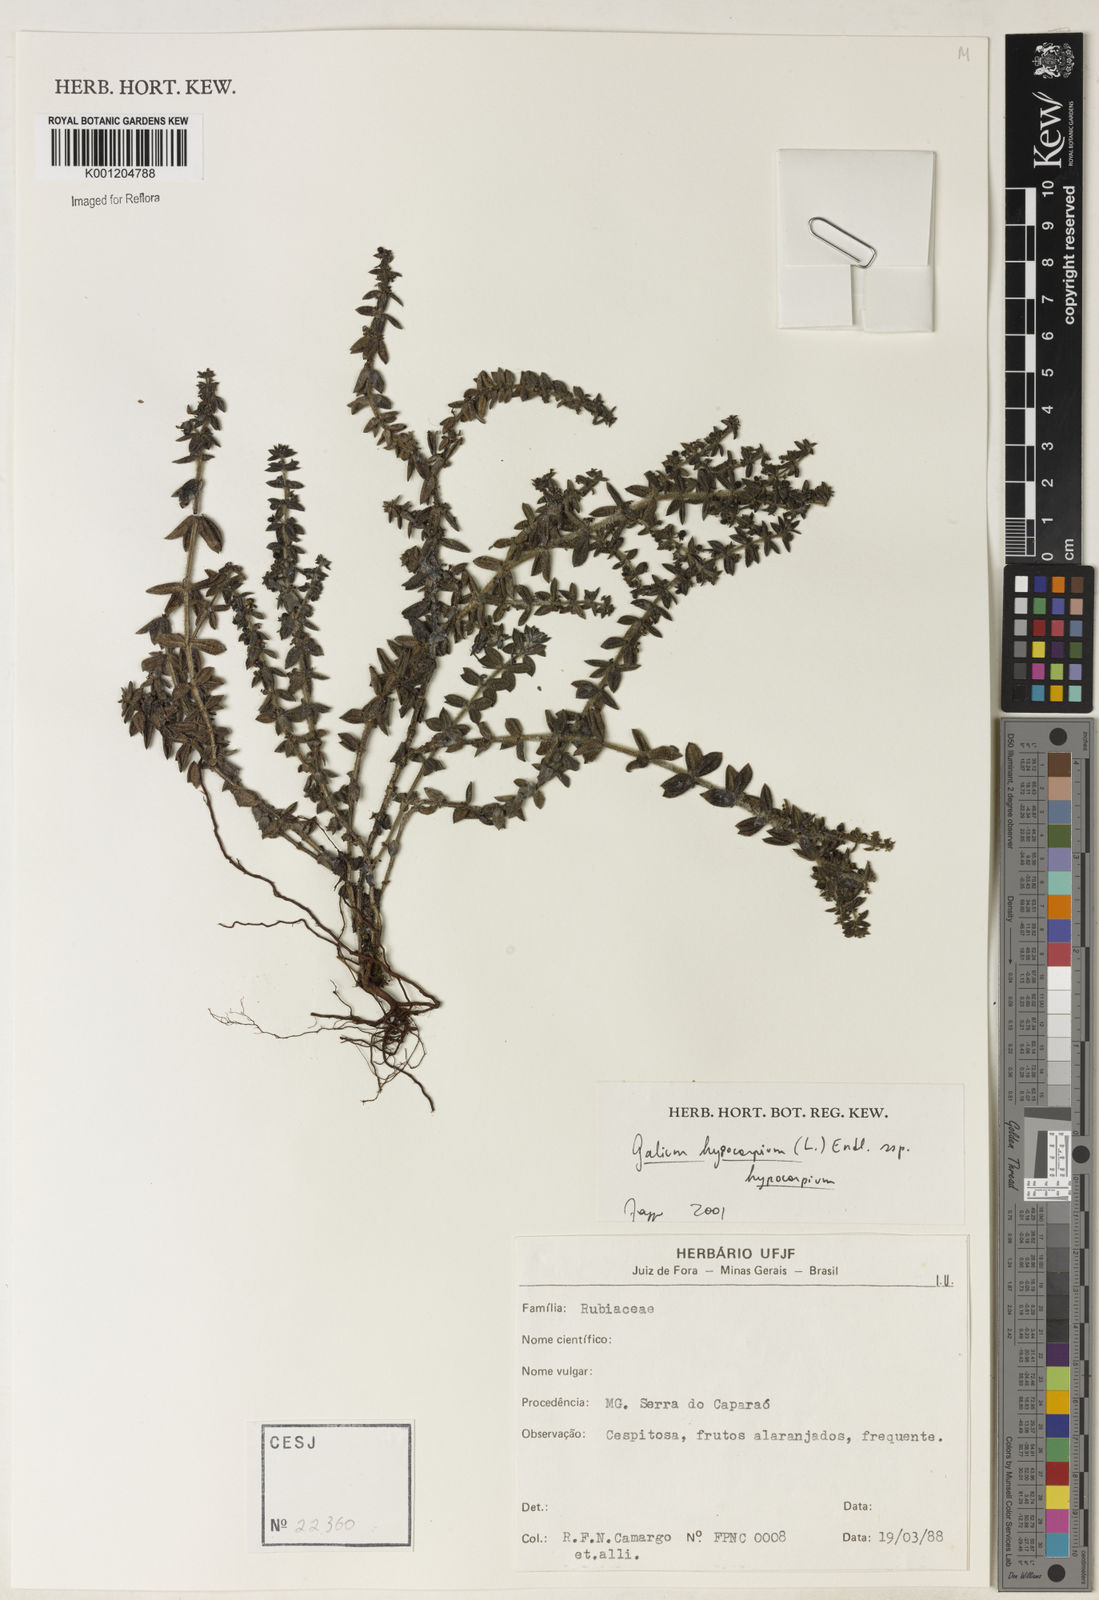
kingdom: Plantae
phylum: Tracheophyta
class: Magnoliopsida
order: Gentianales
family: Rubiaceae
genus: Galium
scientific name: Galium hypocarpium
